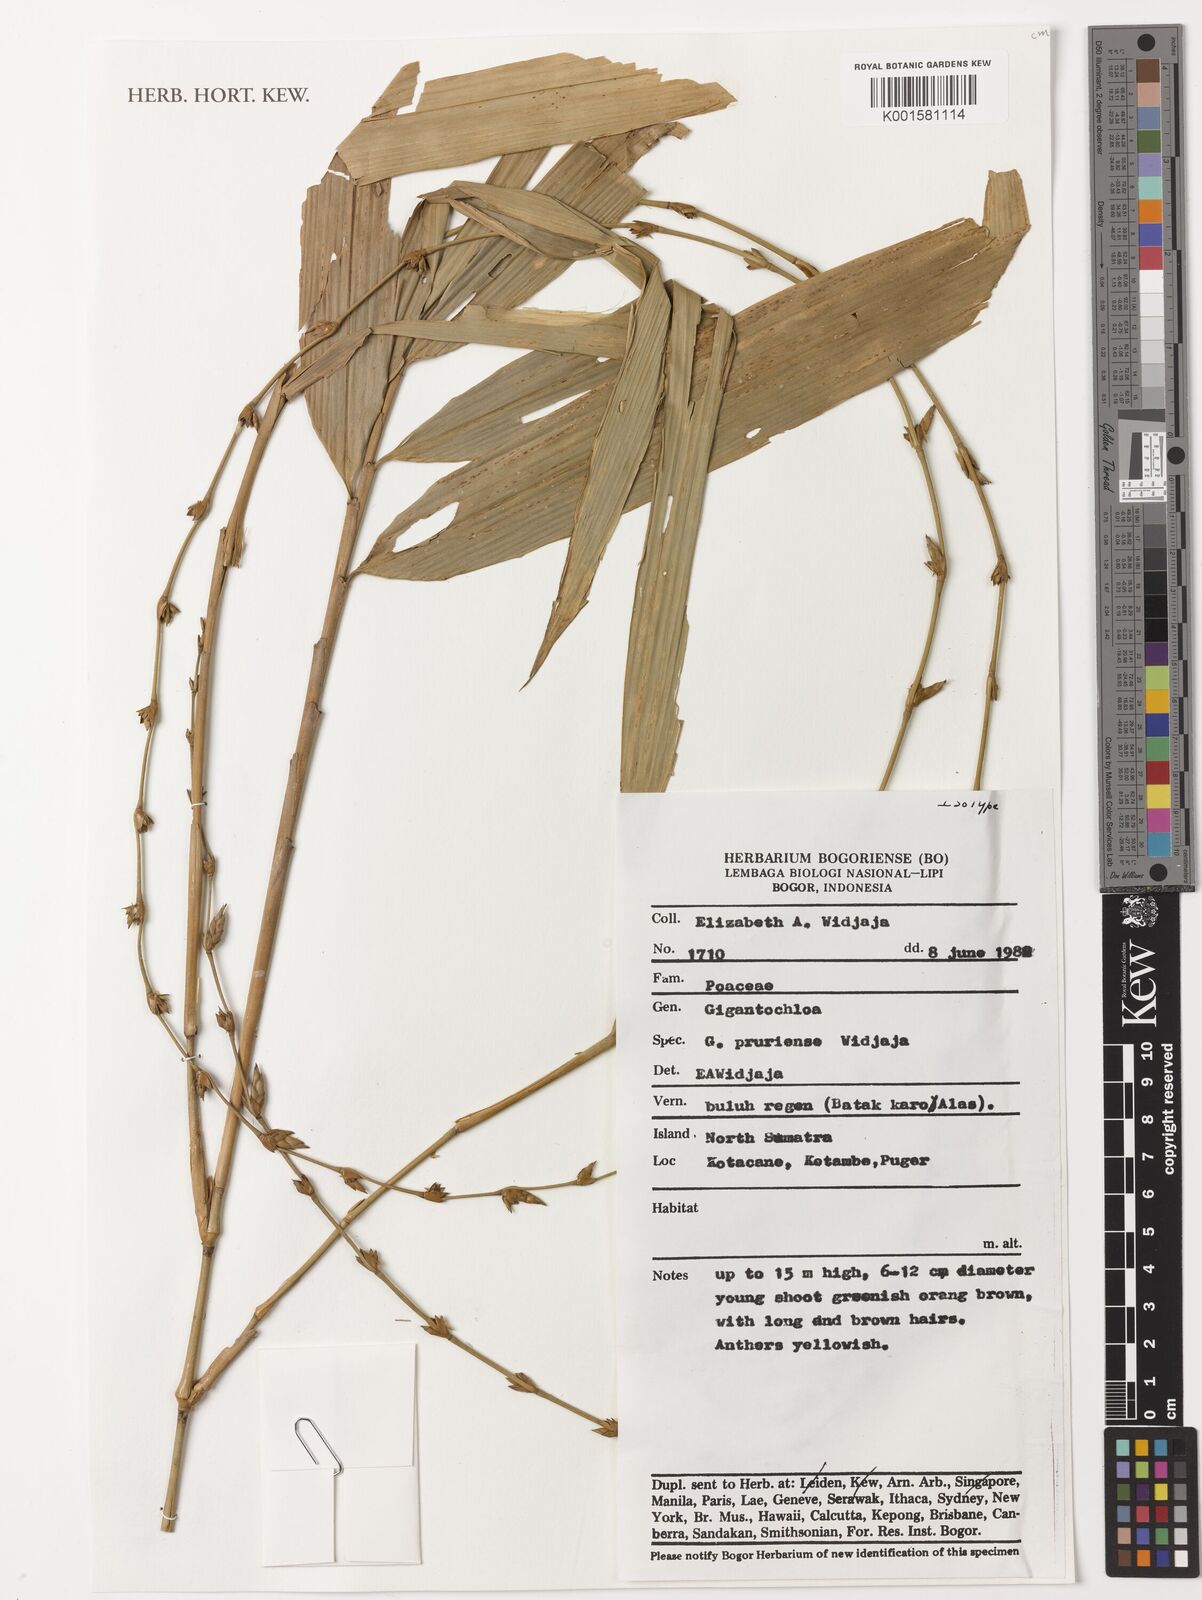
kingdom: Plantae
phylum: Tracheophyta
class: Liliopsida
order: Poales
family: Poaceae
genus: Gigantochloa
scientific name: Gigantochloa pruriens
